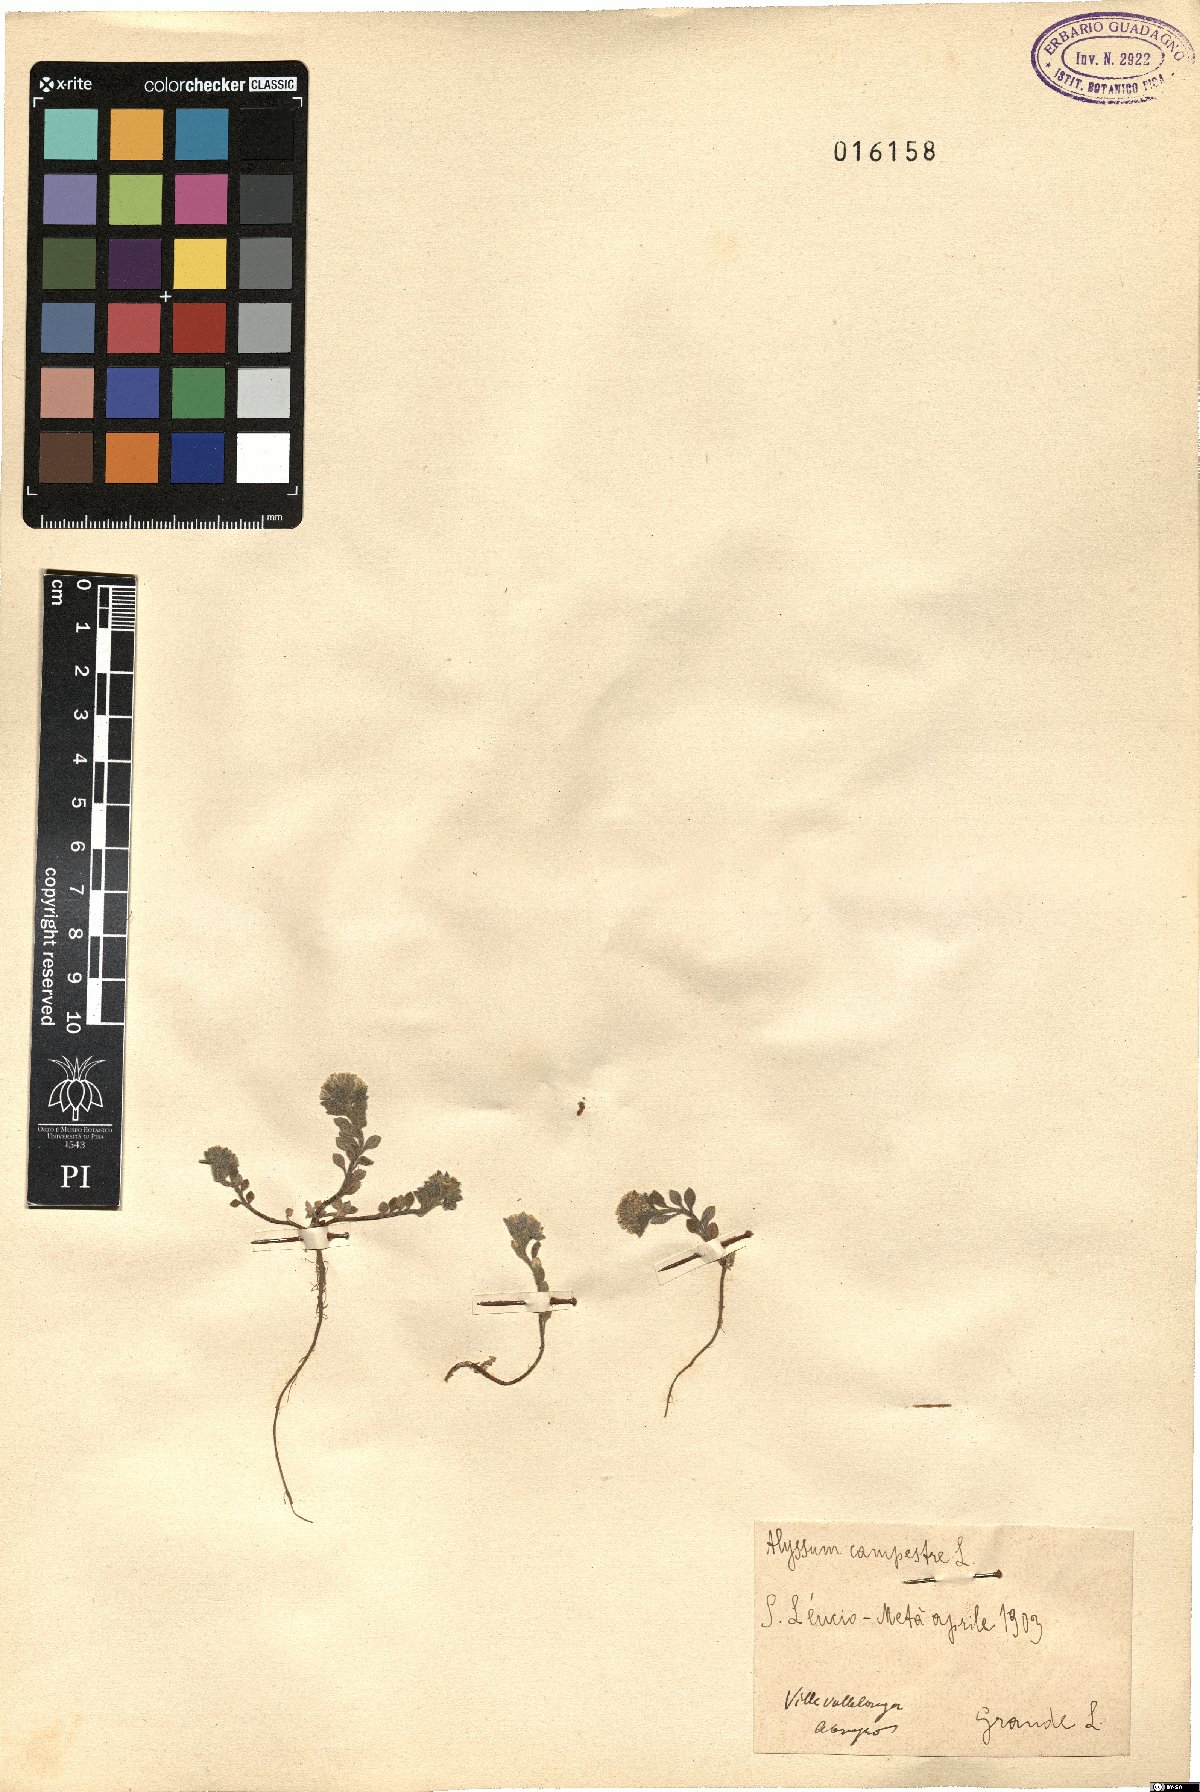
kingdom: Plantae
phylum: Tracheophyta
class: Magnoliopsida
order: Brassicales
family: Brassicaceae
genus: Alyssum
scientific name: Alyssum alyssoides
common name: Small alison
